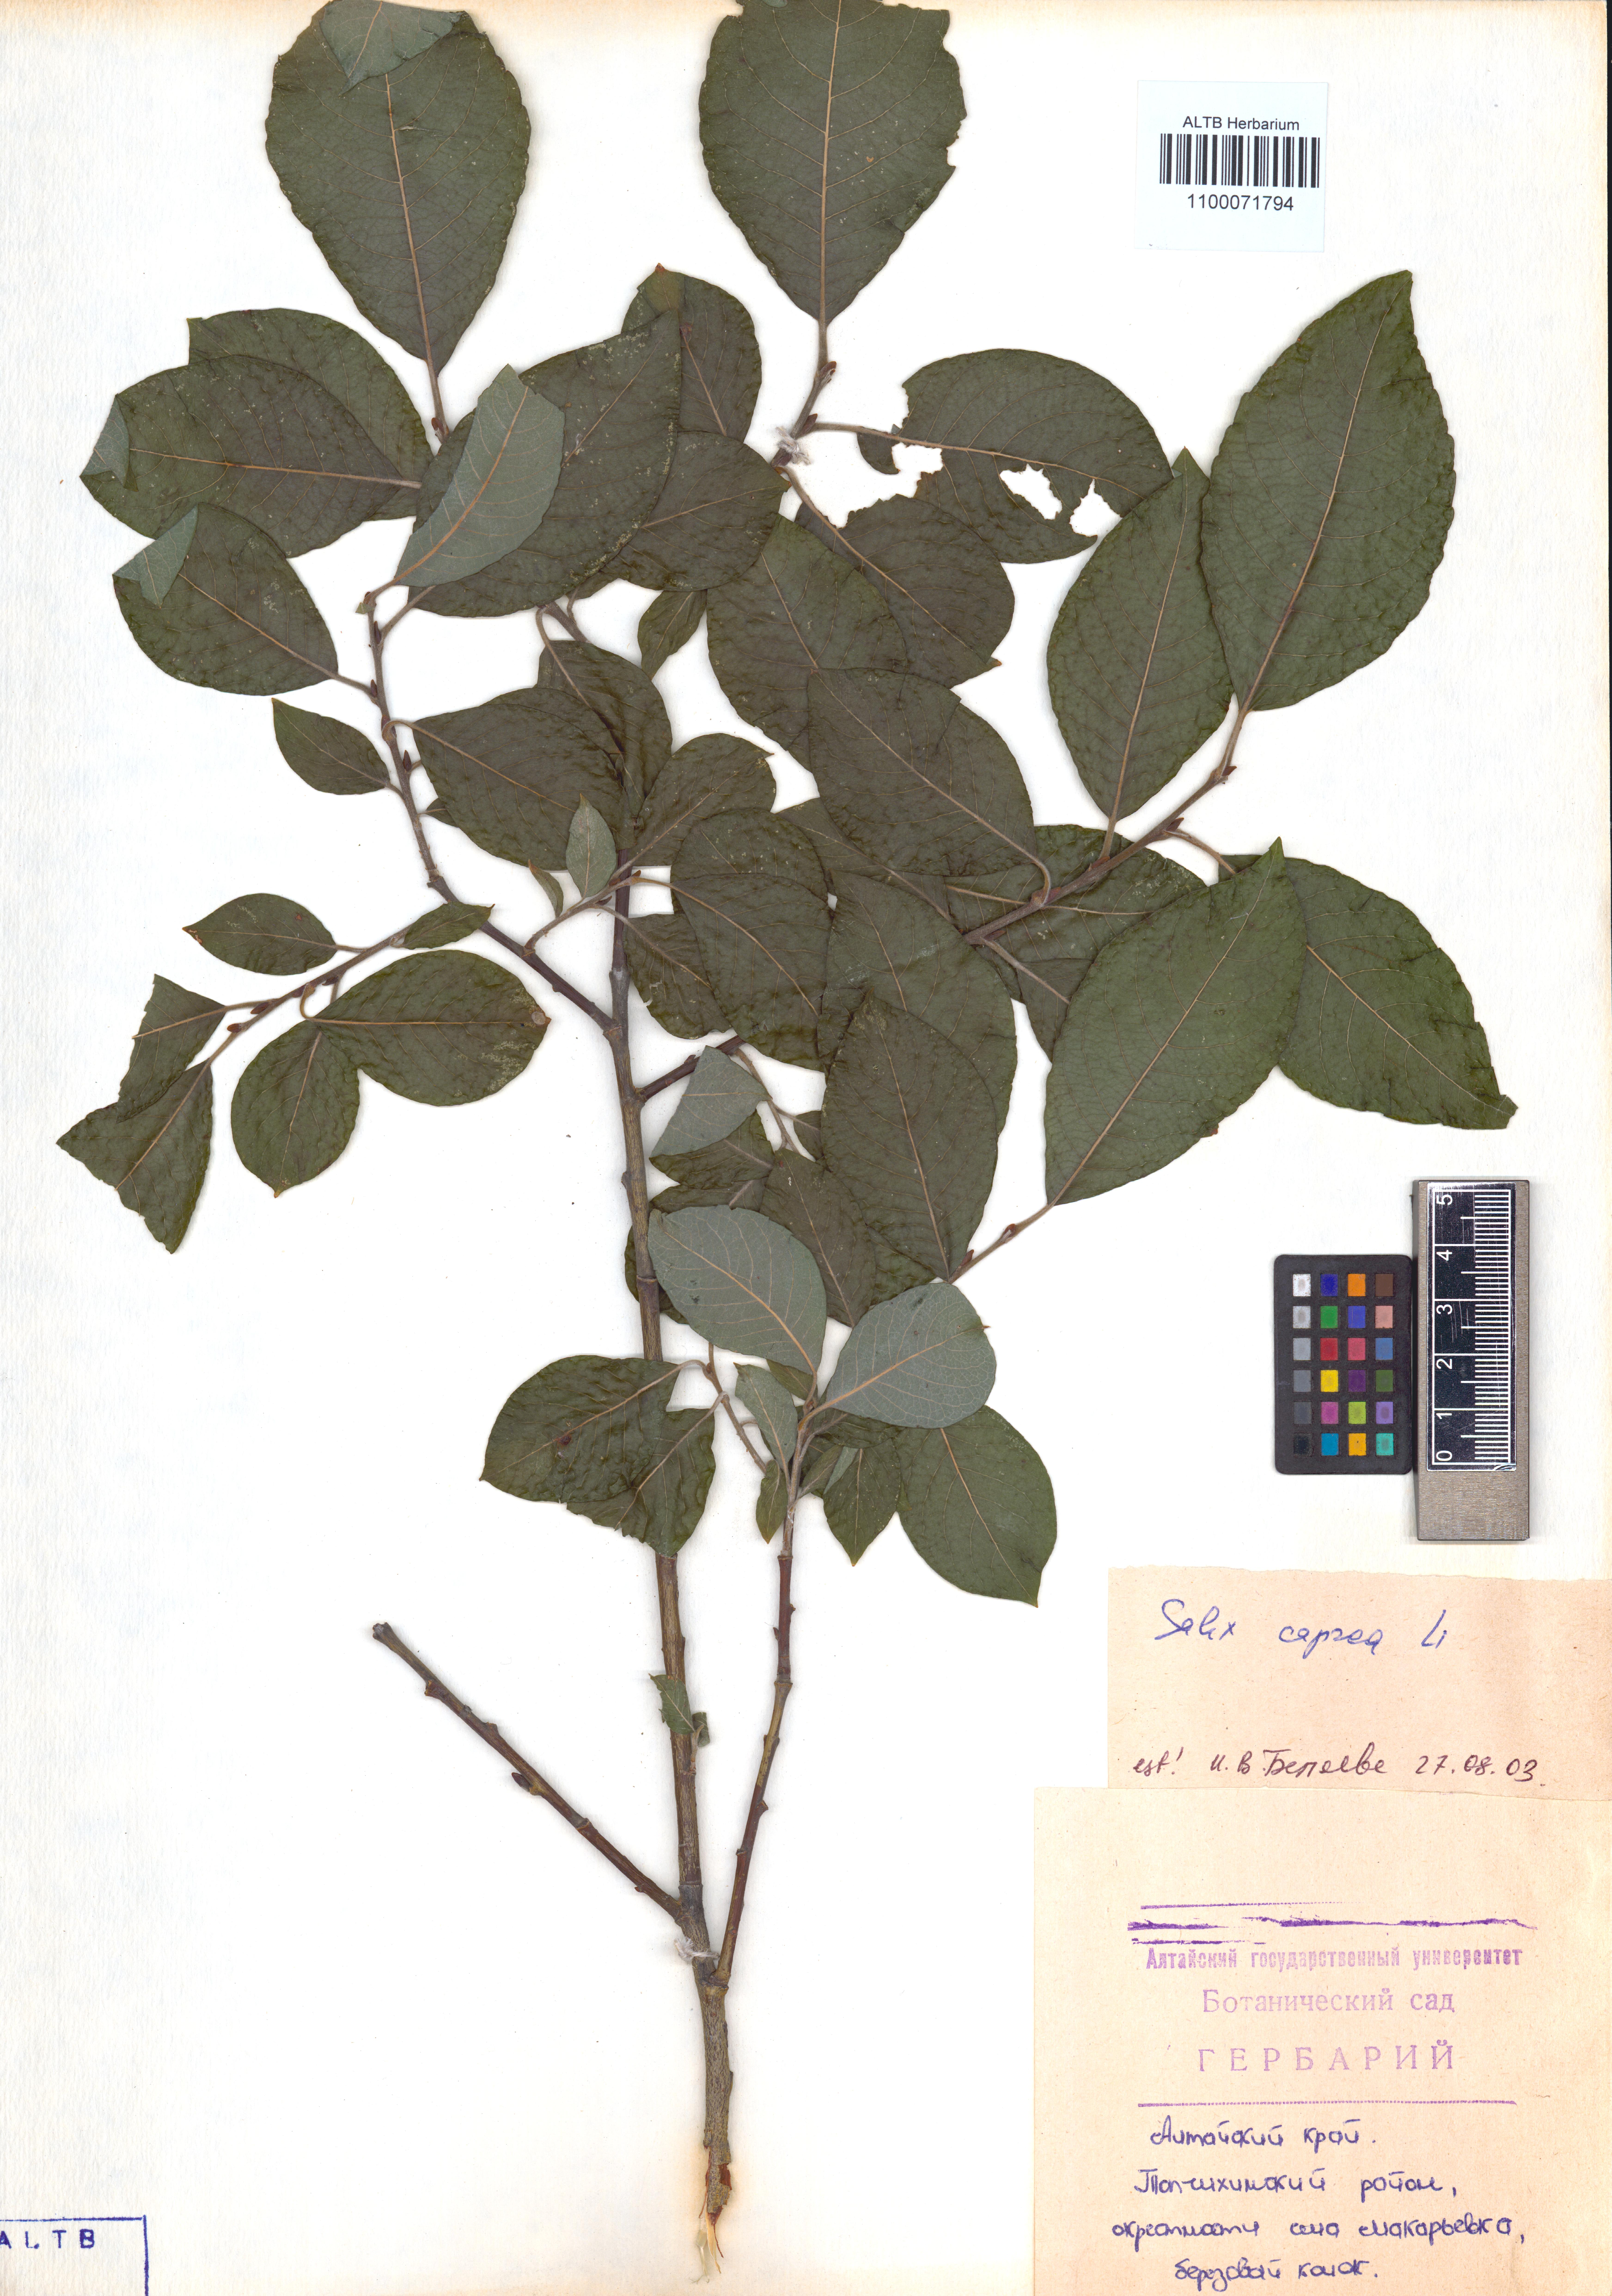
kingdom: Plantae
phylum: Tracheophyta
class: Magnoliopsida
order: Malpighiales
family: Salicaceae
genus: Salix
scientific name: Salix caprea
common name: Goat willow
